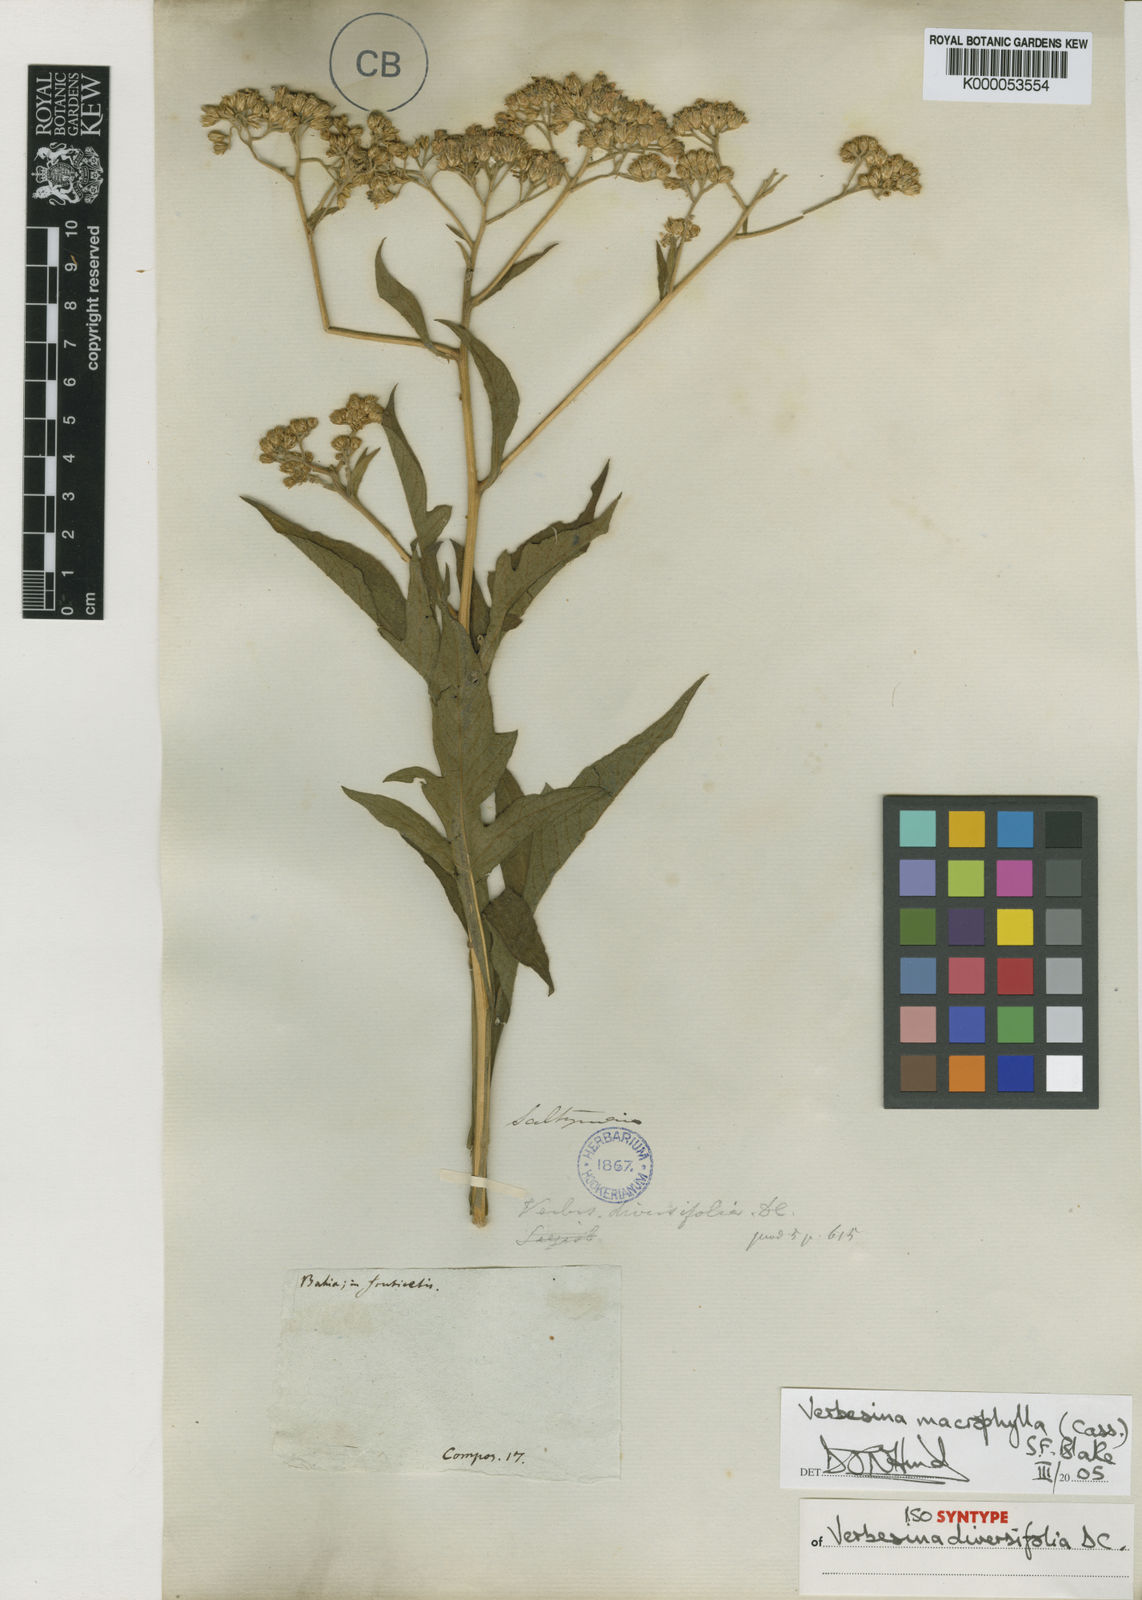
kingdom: Plantae
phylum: Tracheophyta
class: Magnoliopsida
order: Asterales
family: Asteraceae
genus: Verbesina
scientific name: Verbesina macrophylla
